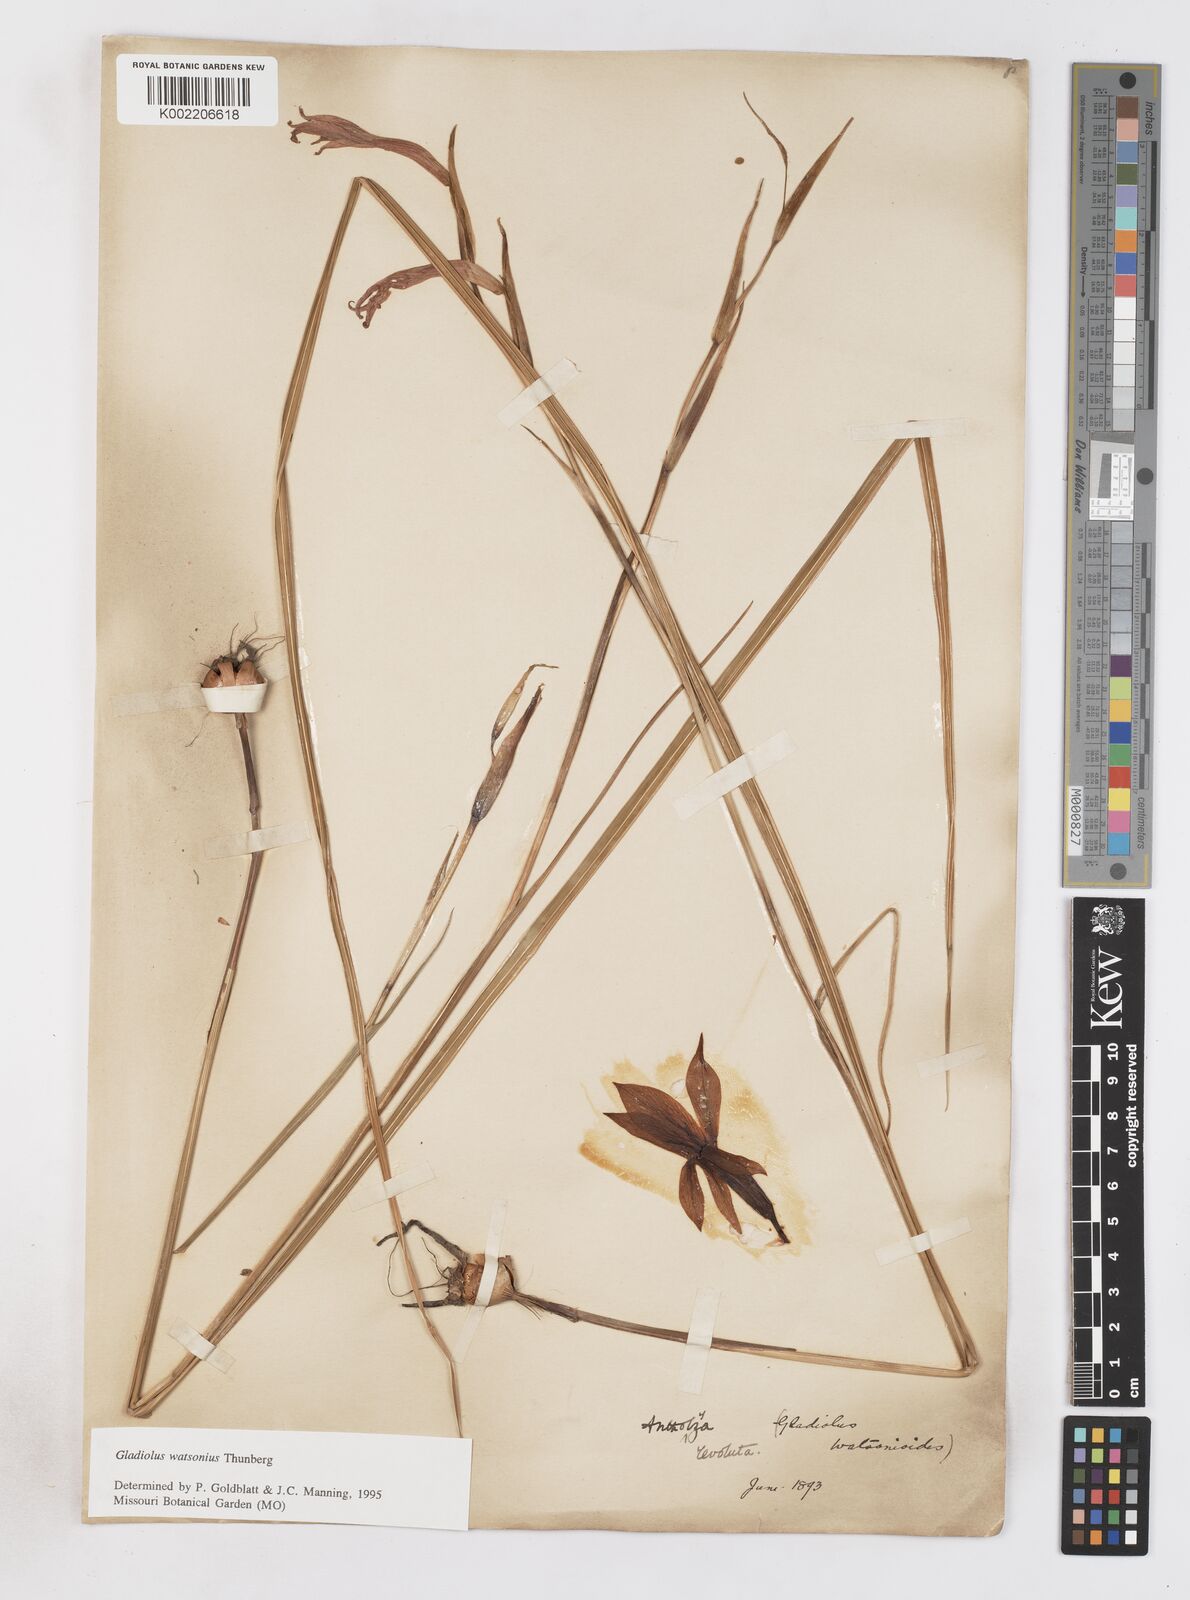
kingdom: Plantae
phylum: Tracheophyta
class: Liliopsida
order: Asparagales
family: Iridaceae
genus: Gladiolus
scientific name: Gladiolus watsonius
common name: Red afrikaner
